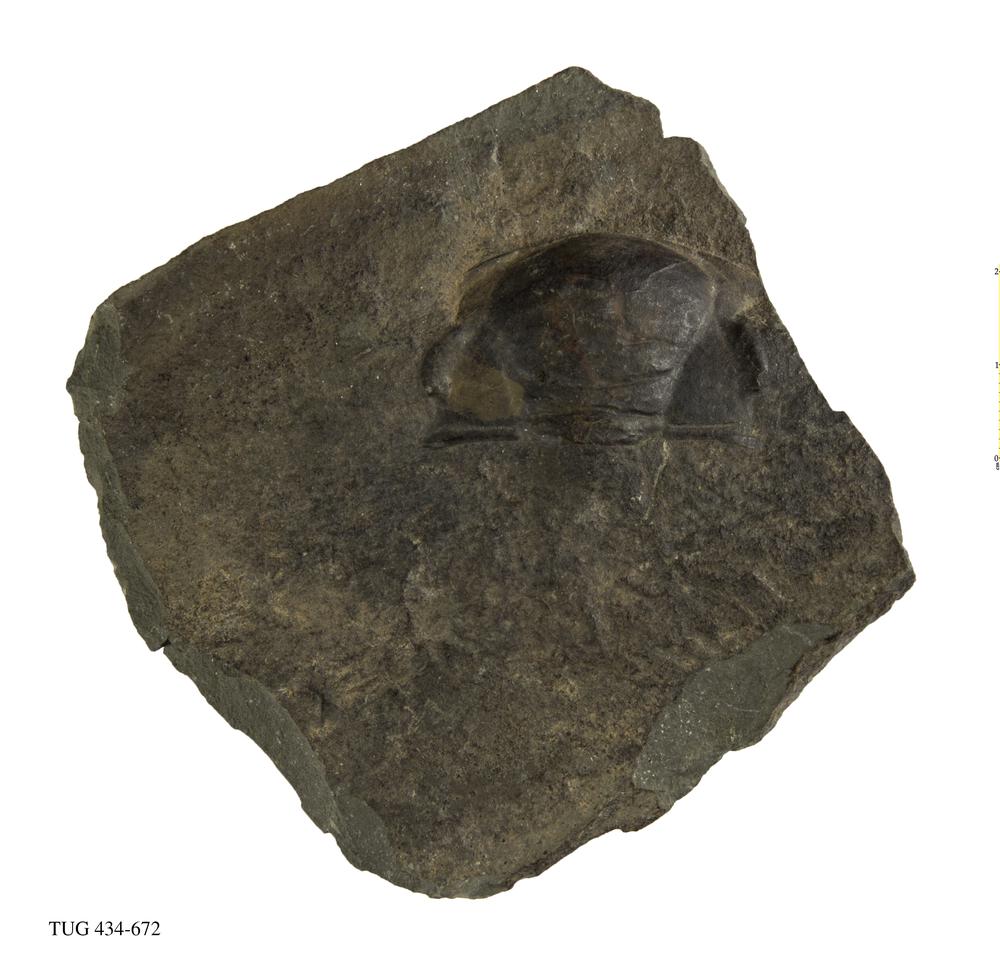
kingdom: Animalia
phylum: Arthropoda
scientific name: Arthropoda
